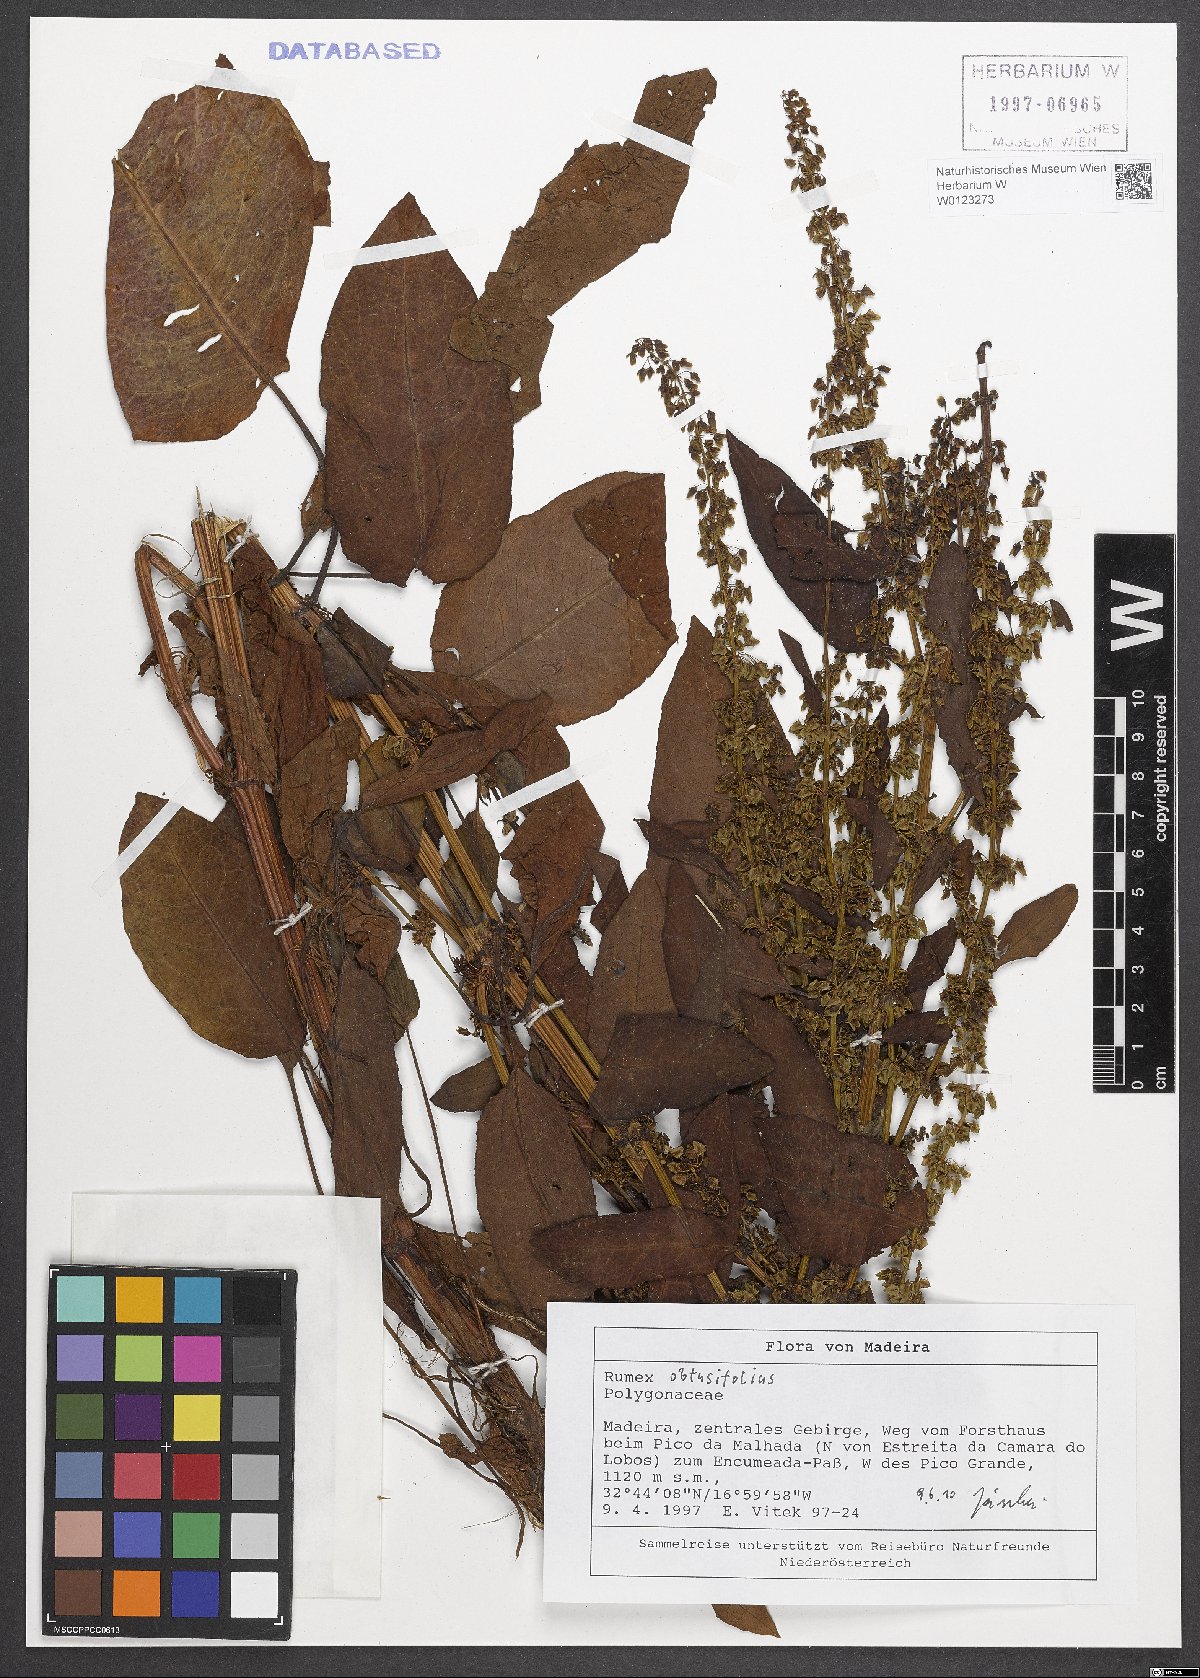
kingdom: Plantae
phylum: Tracheophyta
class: Magnoliopsida
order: Caryophyllales
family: Polygonaceae
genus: Rumex
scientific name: Rumex obtusifolius
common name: Bitter dock
